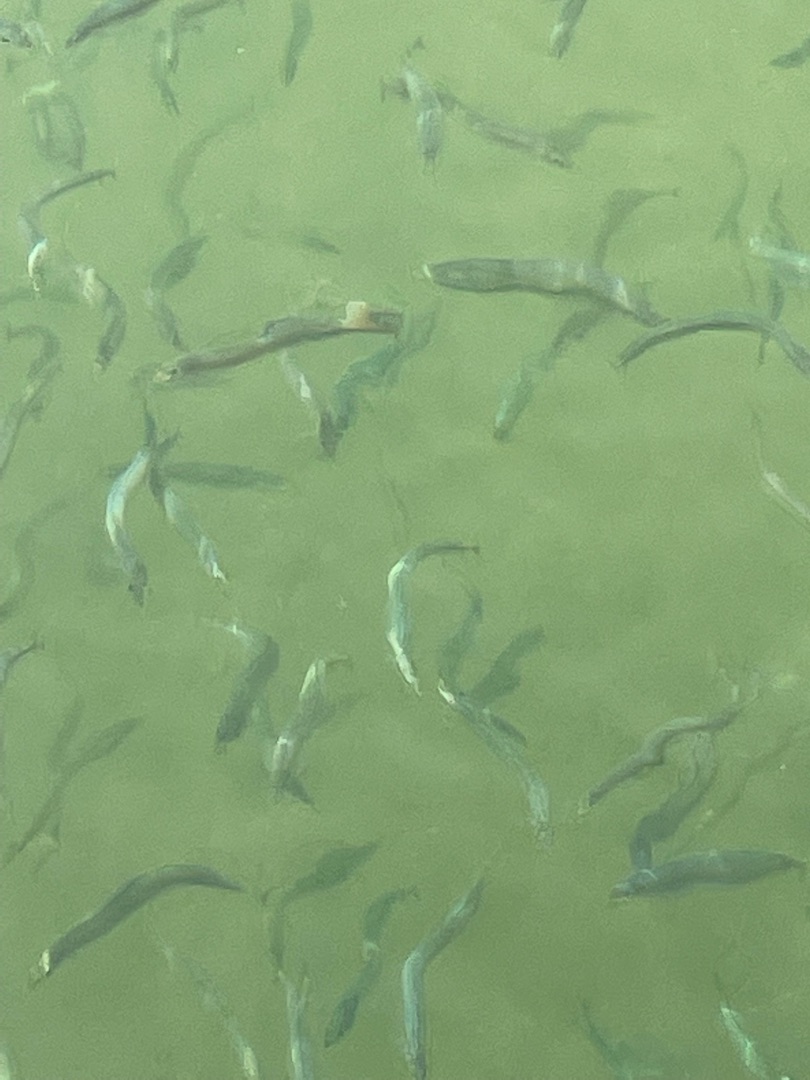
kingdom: Animalia
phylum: Chordata
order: Perciformes
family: Ammodytidae
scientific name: Ammodytidae
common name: Tobisfamilien
